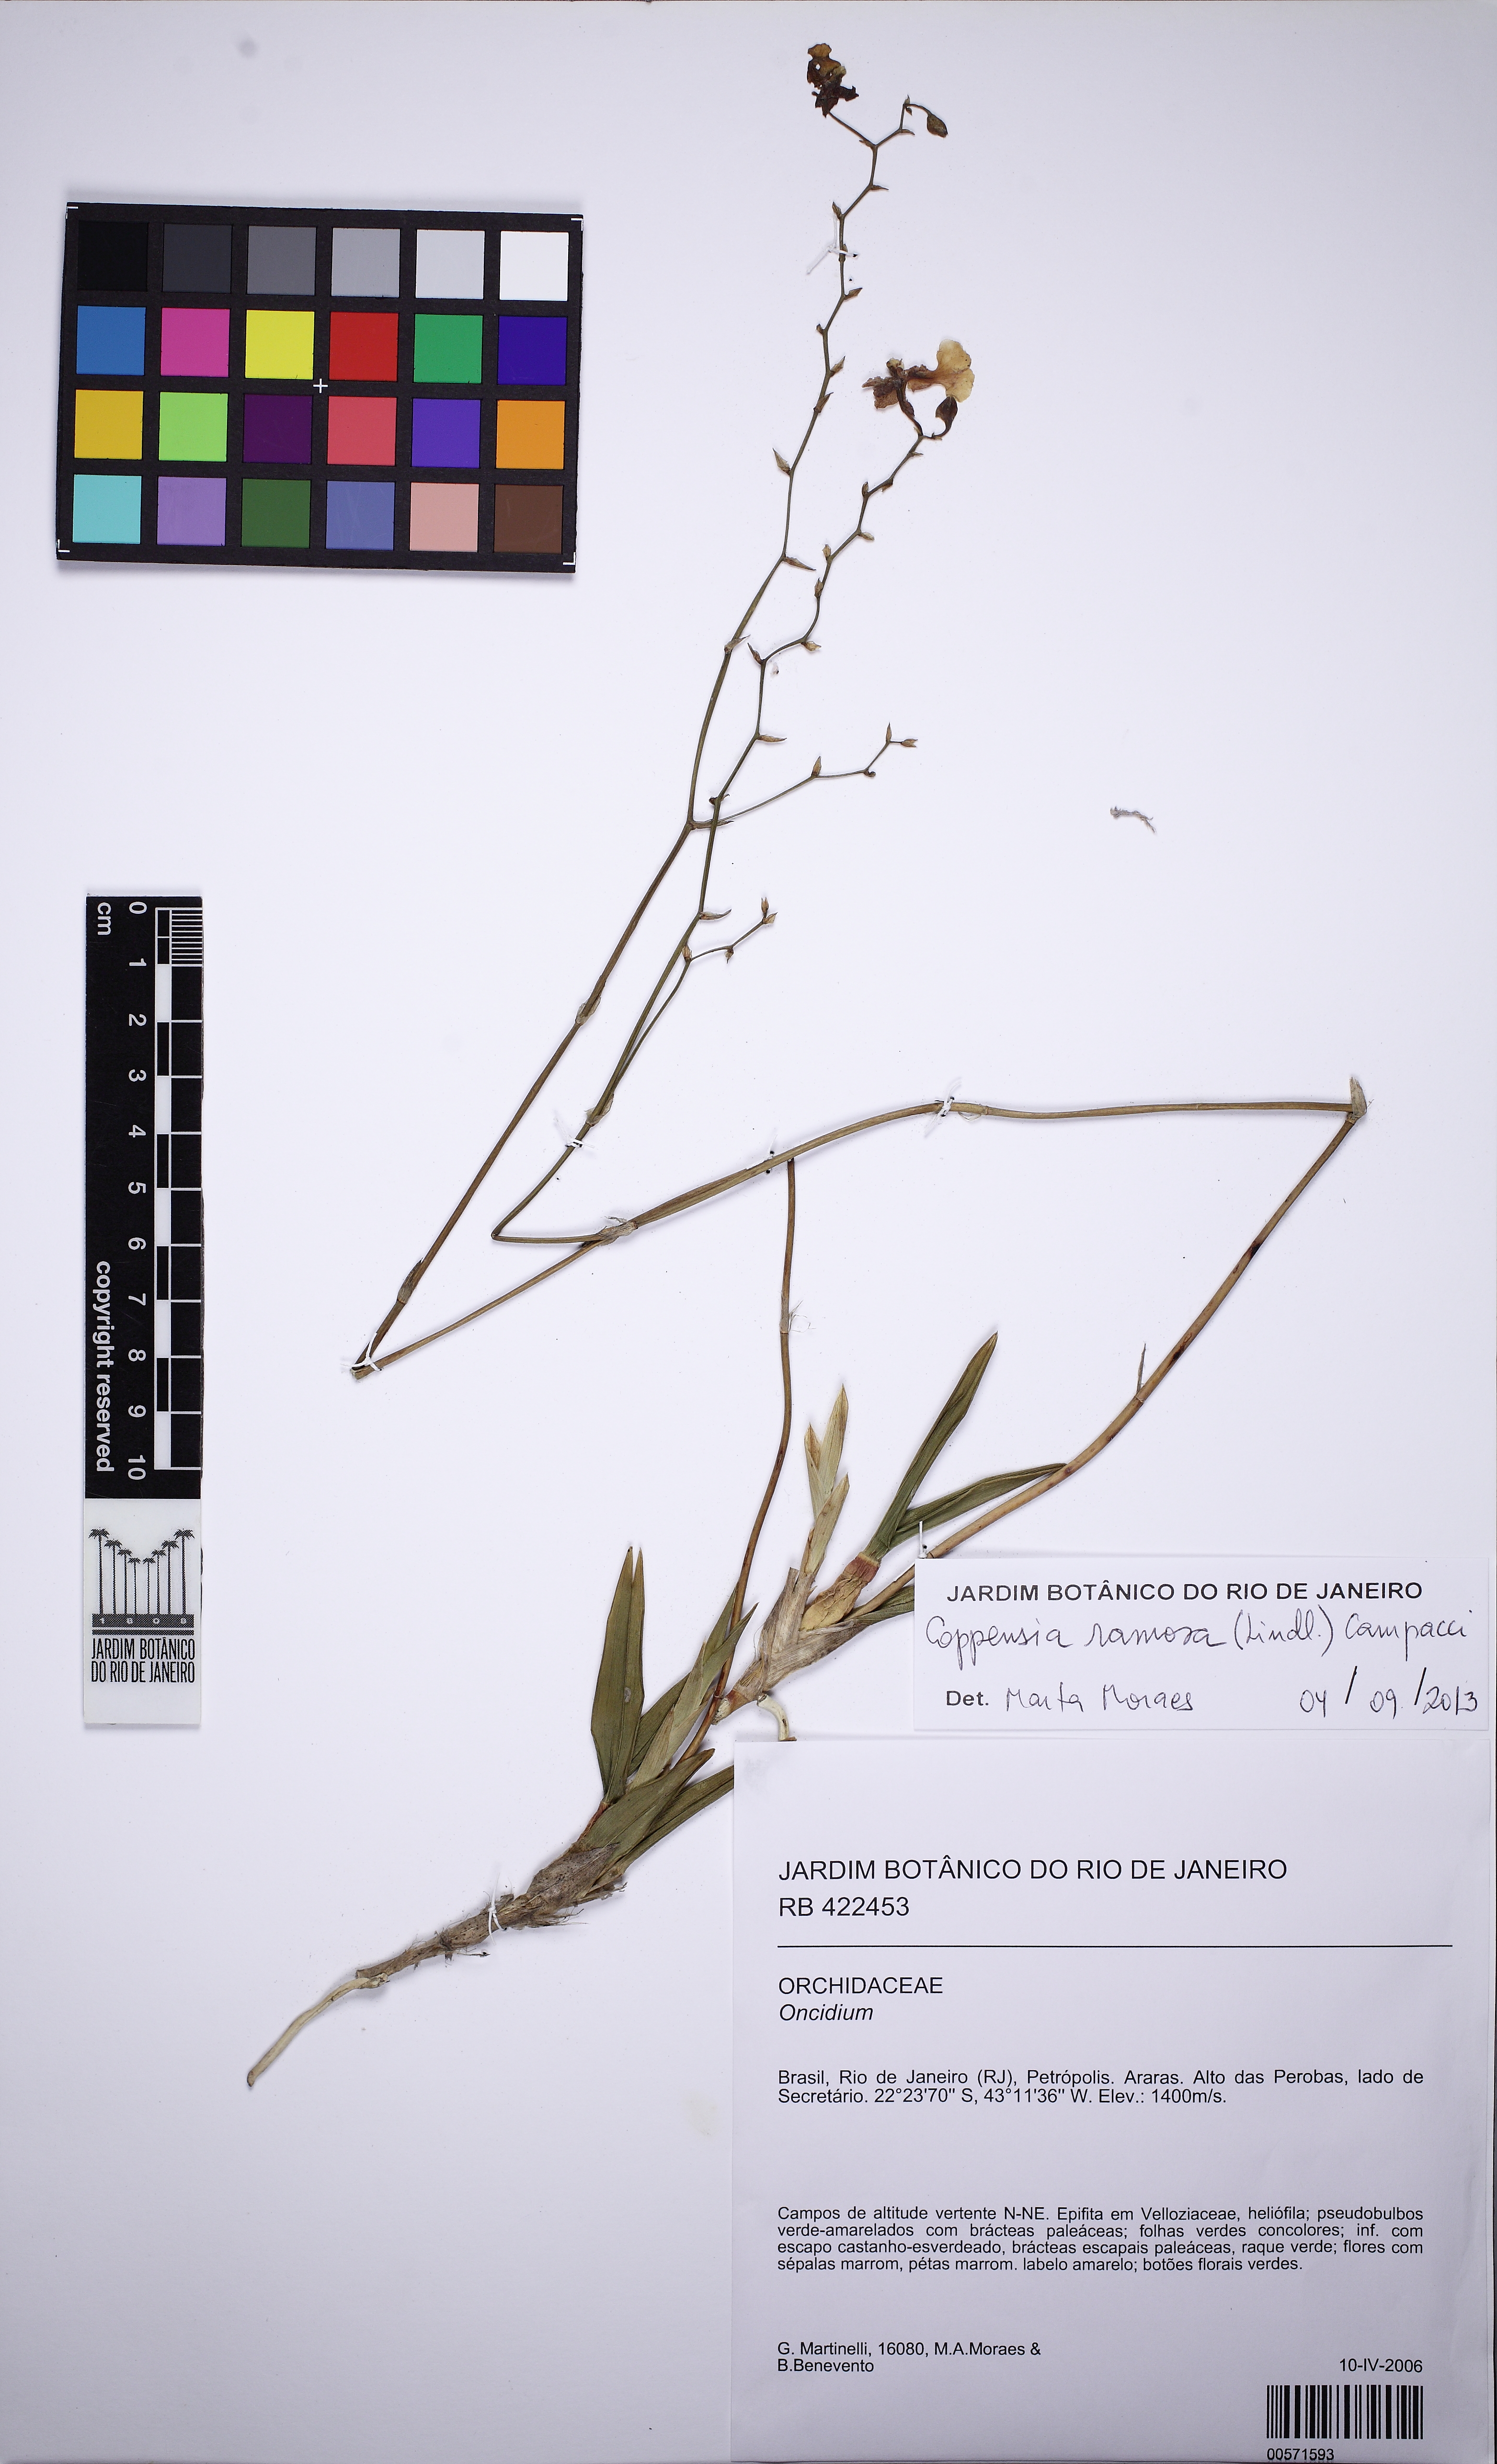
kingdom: Plantae
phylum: Tracheophyta
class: Liliopsida
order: Asparagales
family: Orchidaceae
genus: Gomesa
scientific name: Gomesa warmingii
